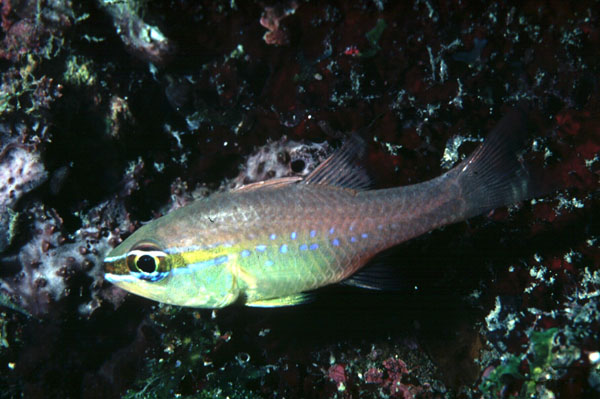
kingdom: Animalia
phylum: Chordata
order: Perciformes
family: Apogonidae
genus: Ostorhinchus
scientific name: Ostorhinchus apogonoides
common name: Goldbelly cardinalfish
